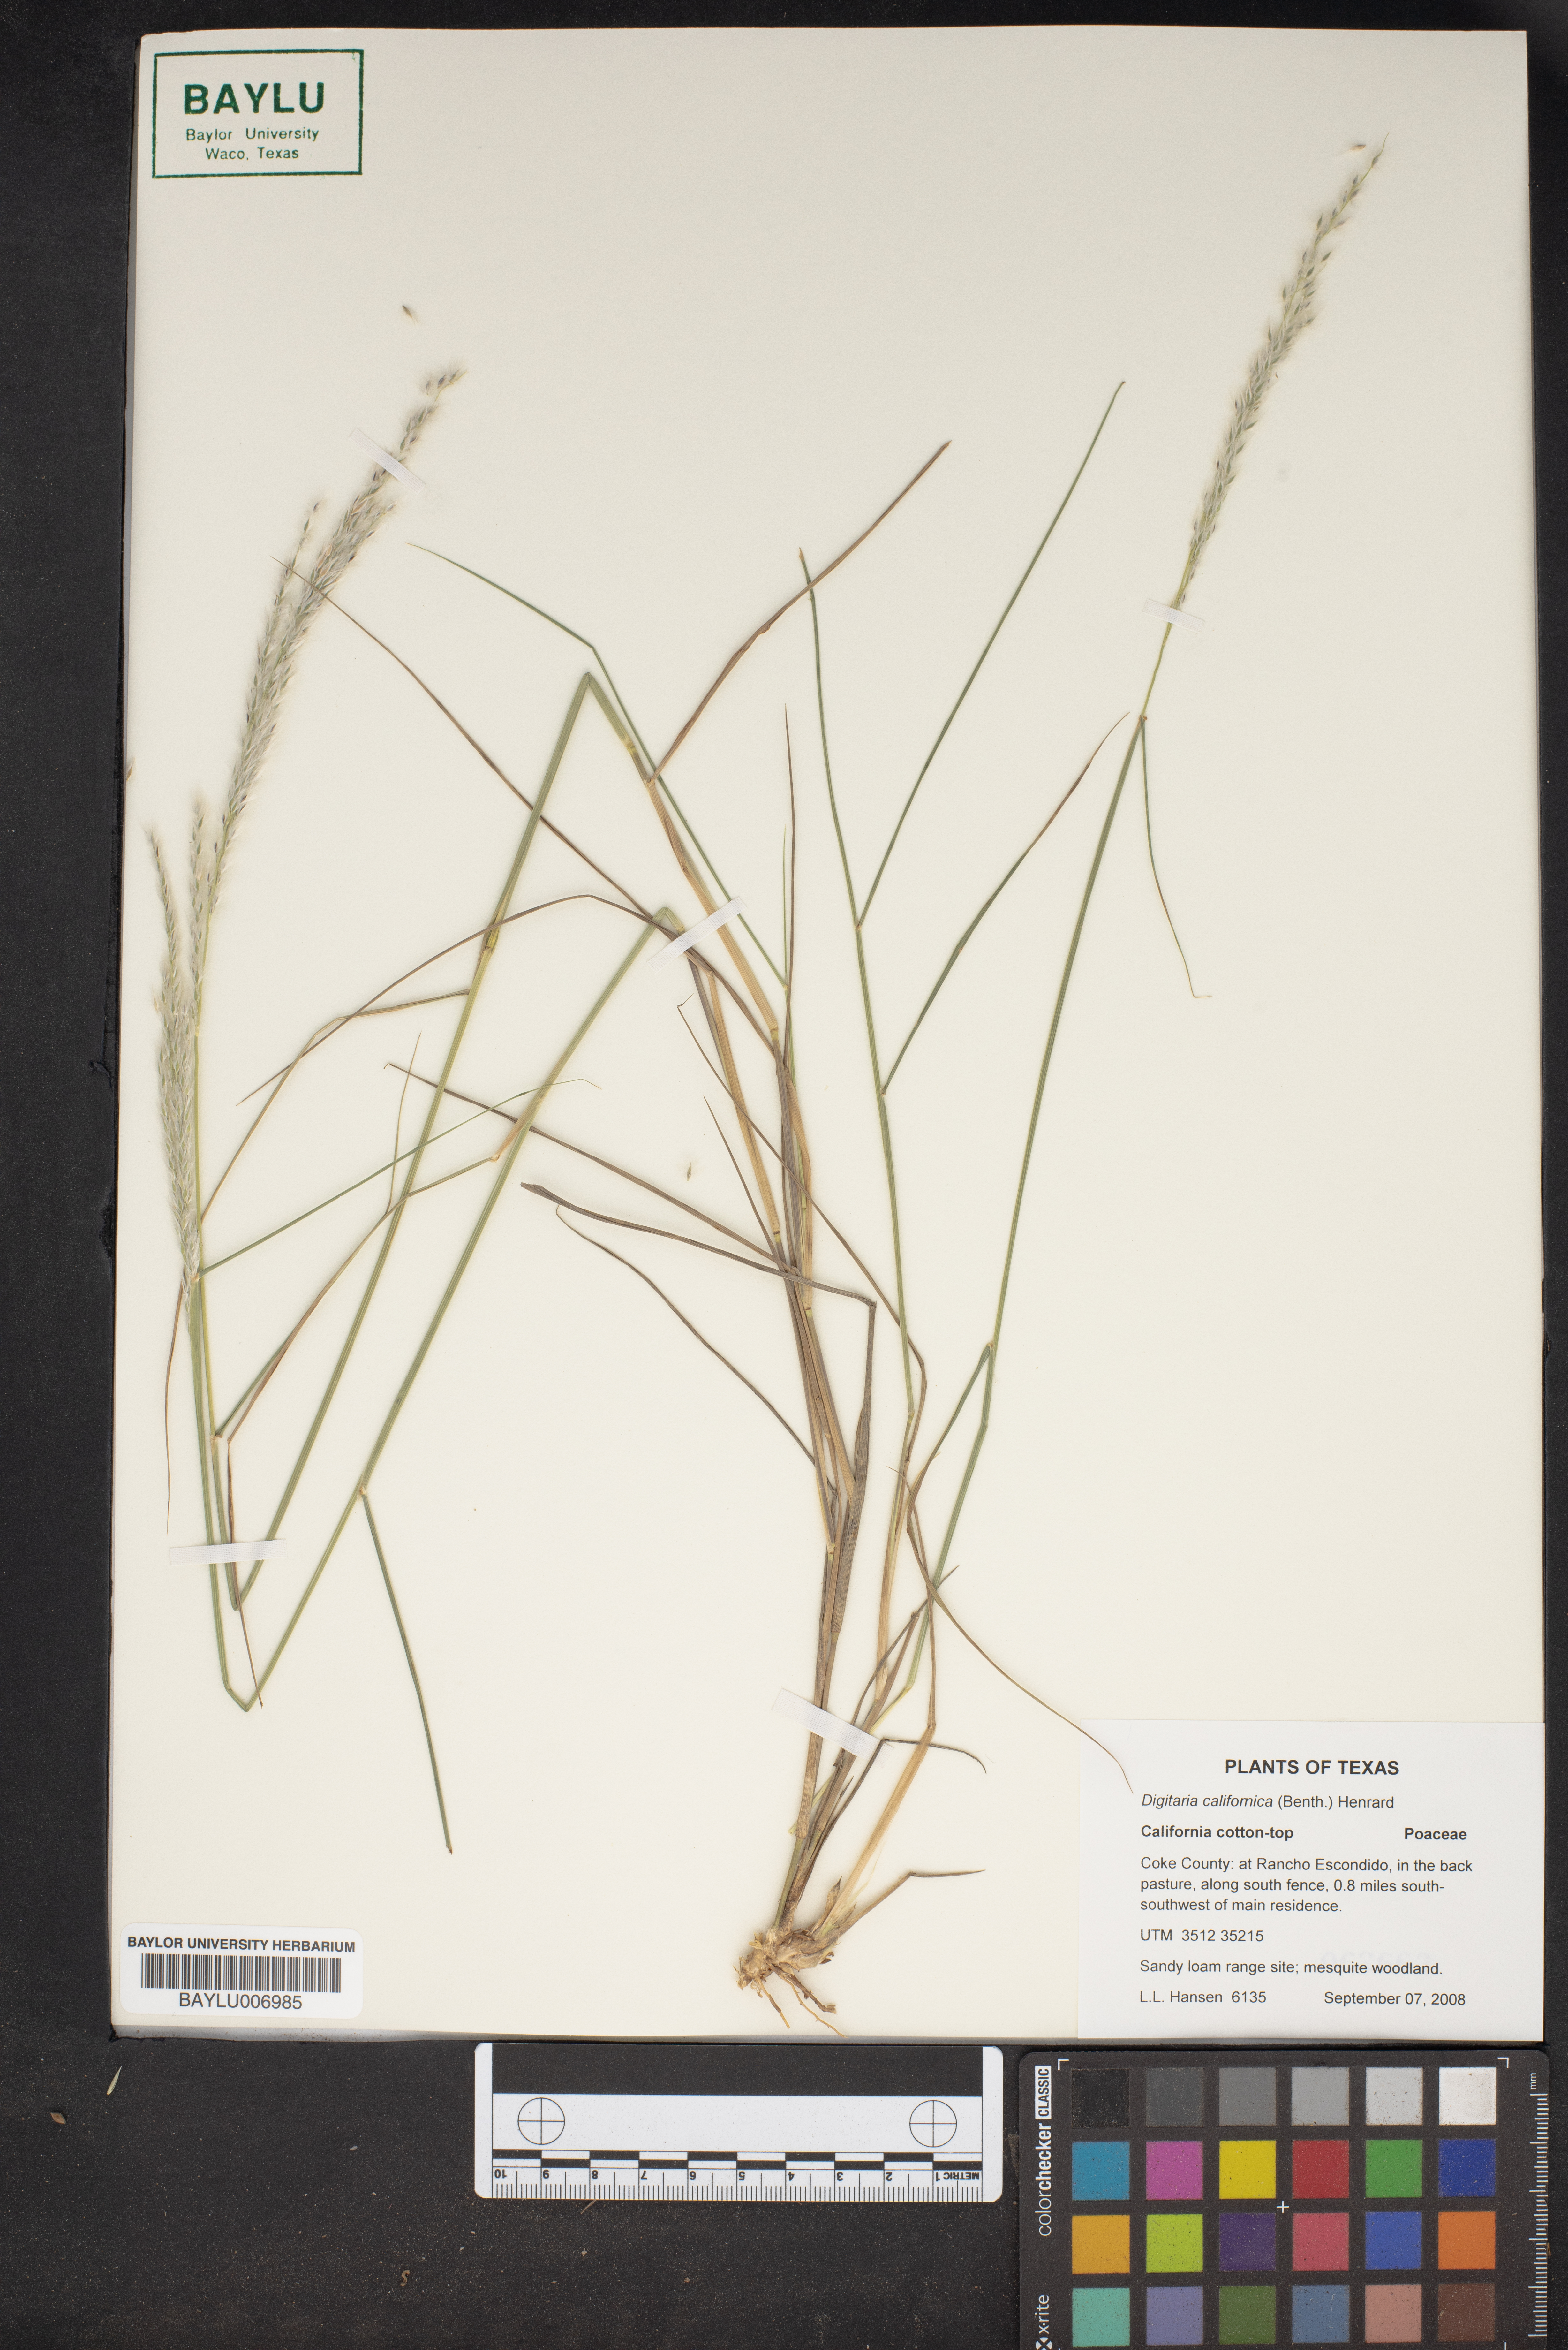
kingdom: Plantae
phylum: Tracheophyta
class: Liliopsida
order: Poales
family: Poaceae
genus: Digitaria
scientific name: Digitaria californica
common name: Arizona cottontop
